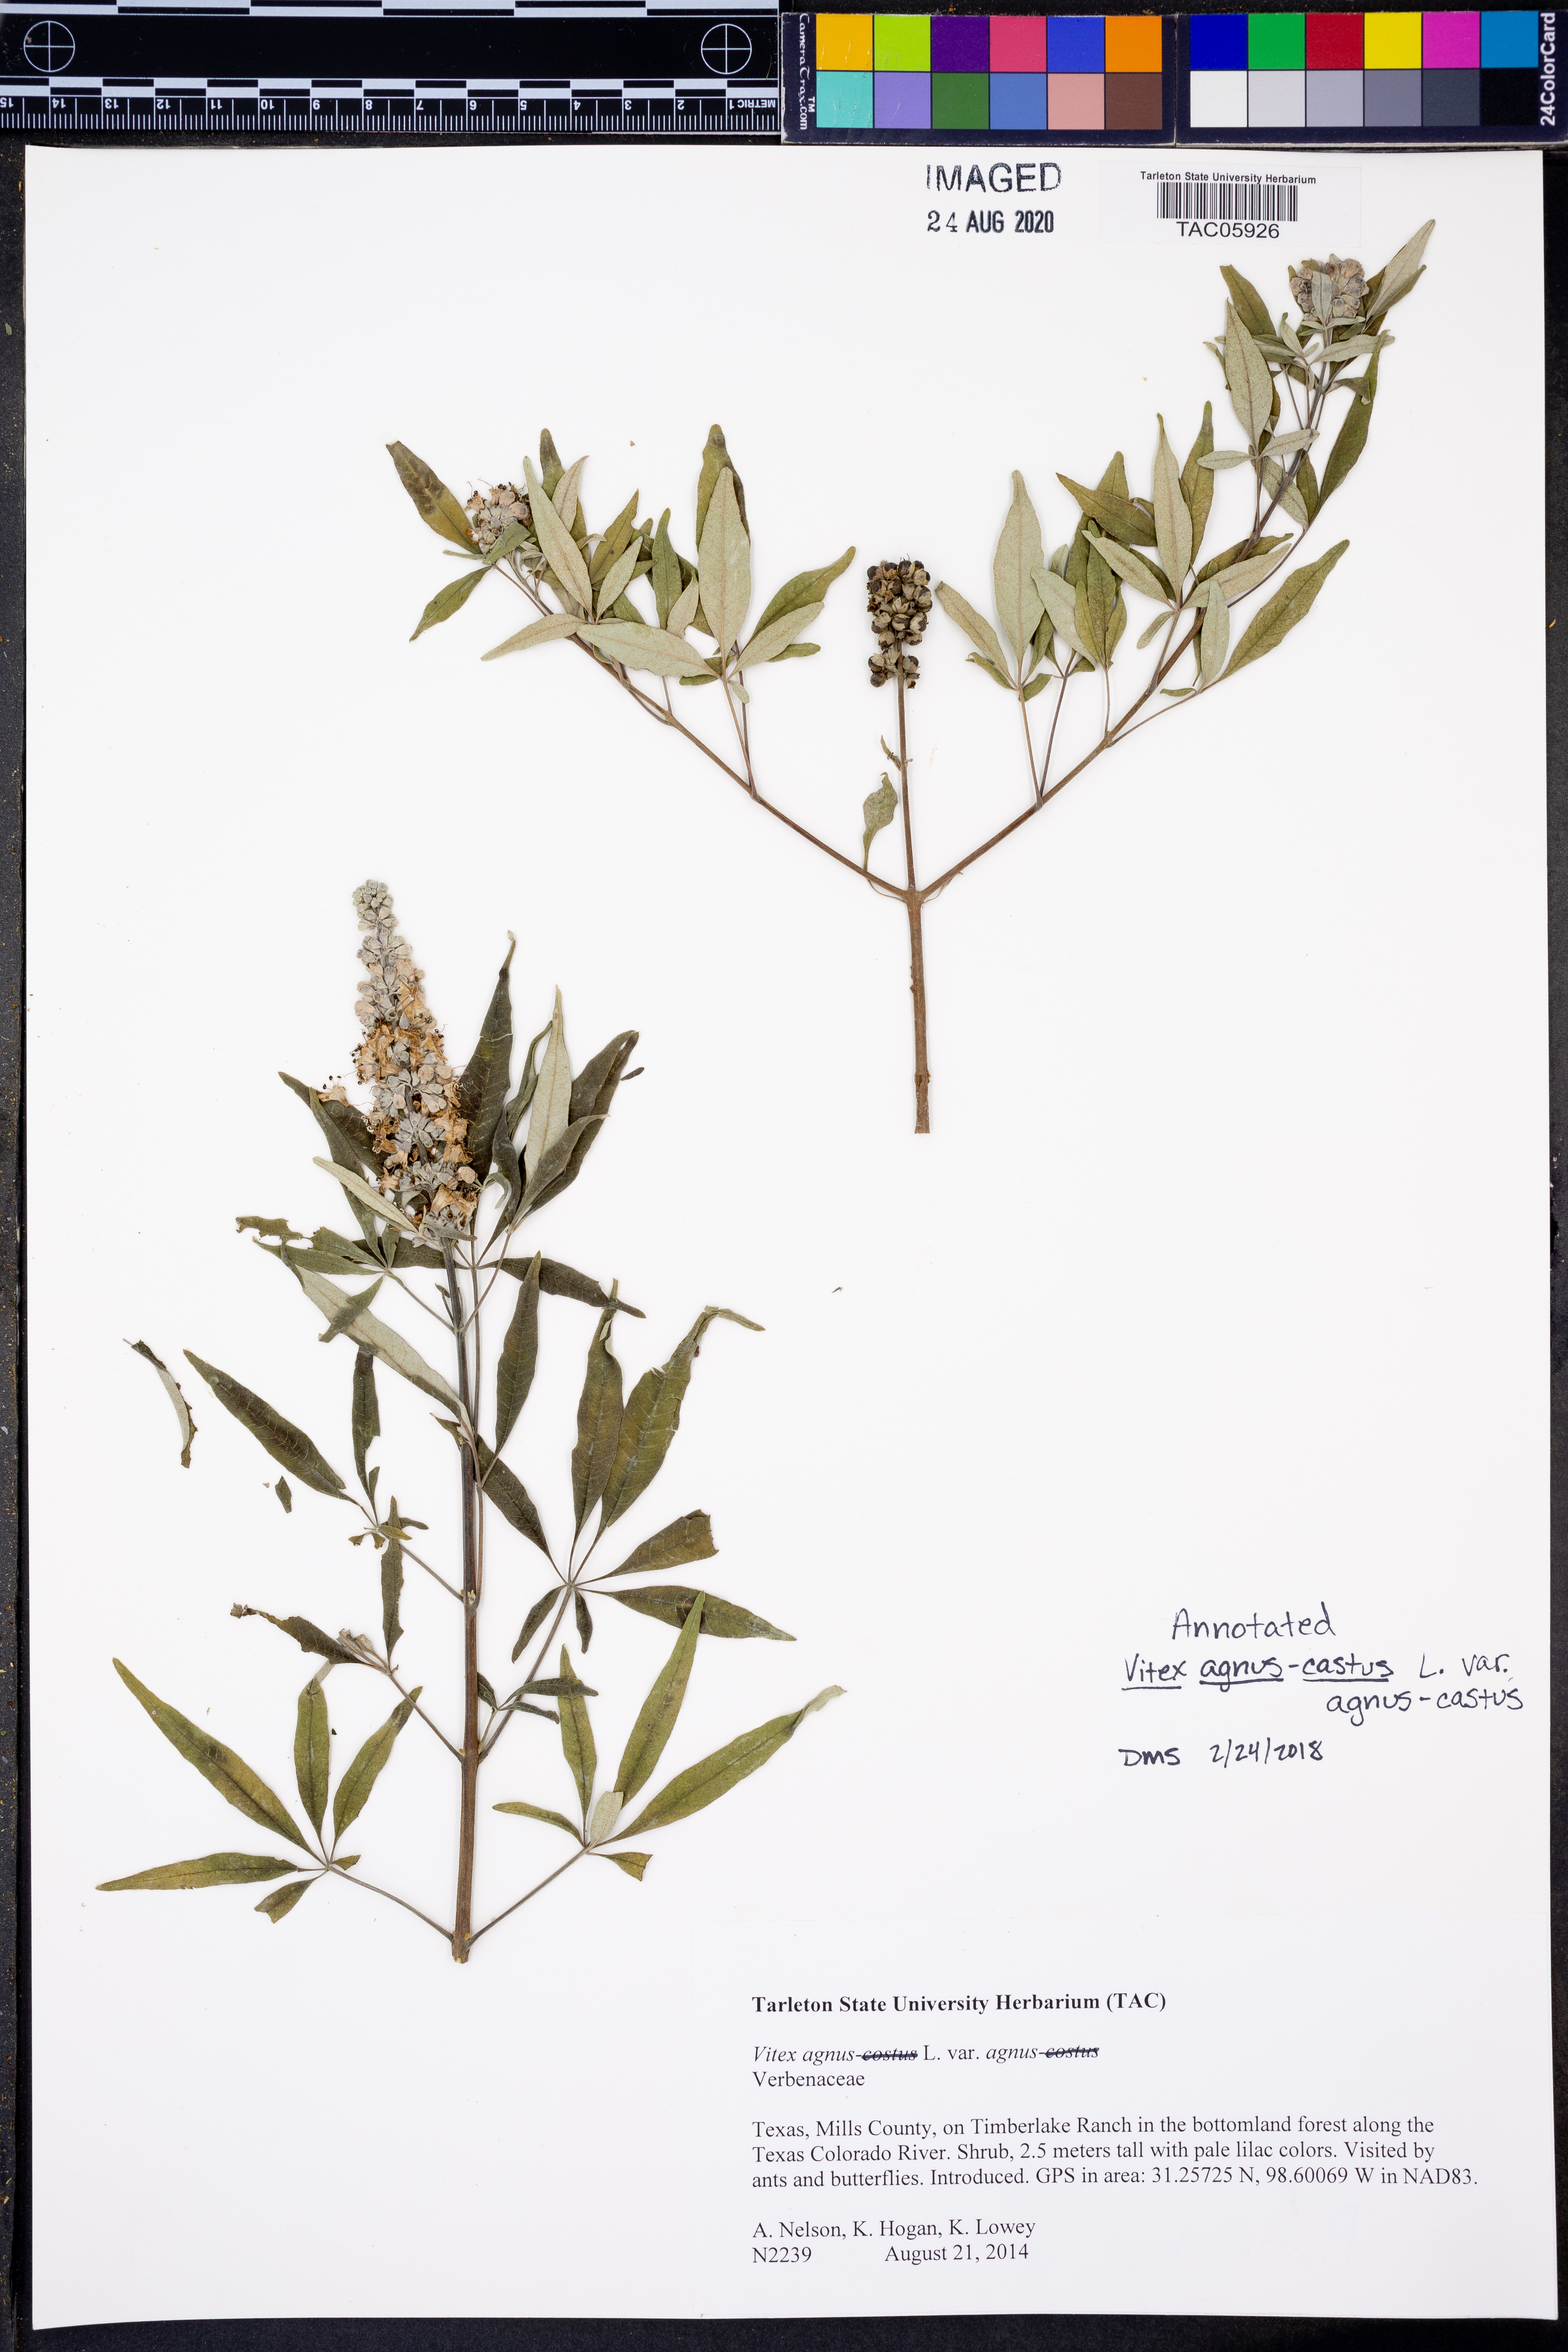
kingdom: Plantae
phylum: Tracheophyta
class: Magnoliopsida
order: Lamiales
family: Lamiaceae
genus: Vitex
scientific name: Vitex agnus-castus
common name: Chasteberry
